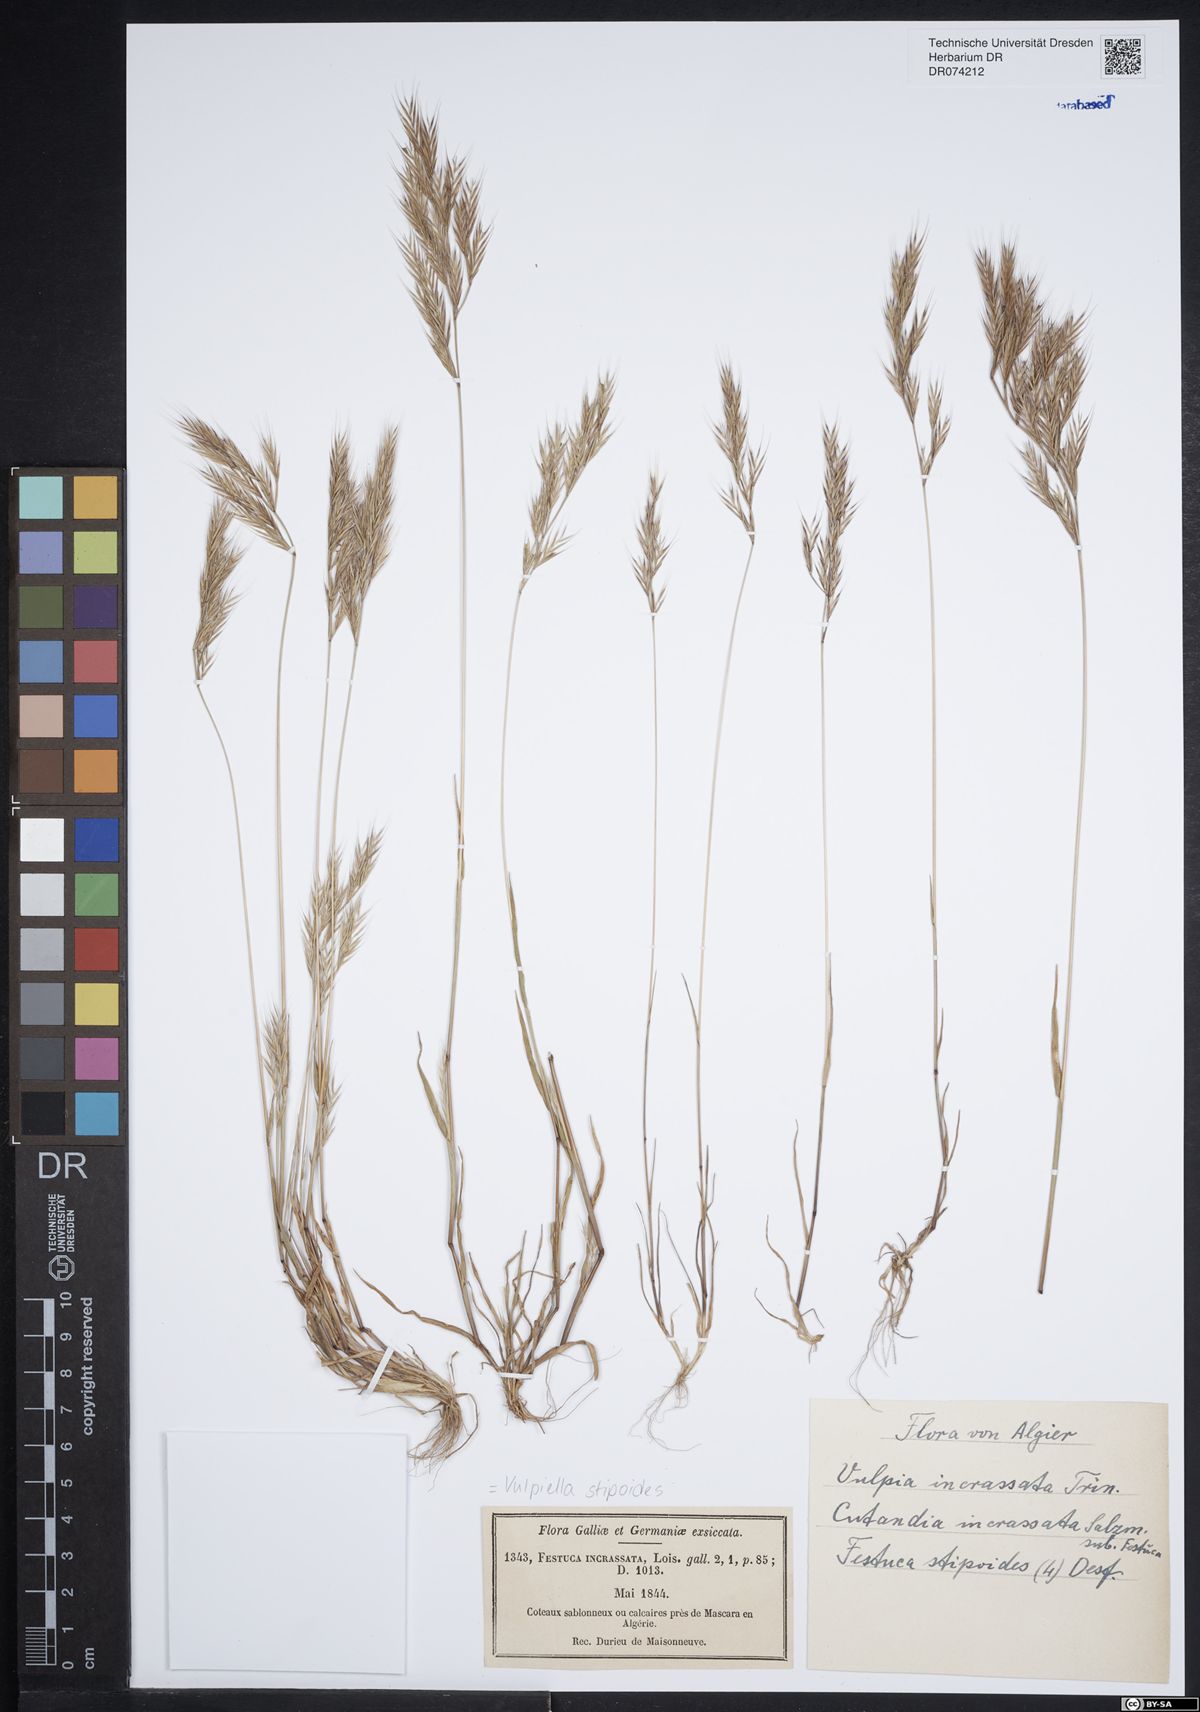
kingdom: Plantae
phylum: Tracheophyta
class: Liliopsida
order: Poales
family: Poaceae
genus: Vulpiella
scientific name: Vulpiella stipoides
